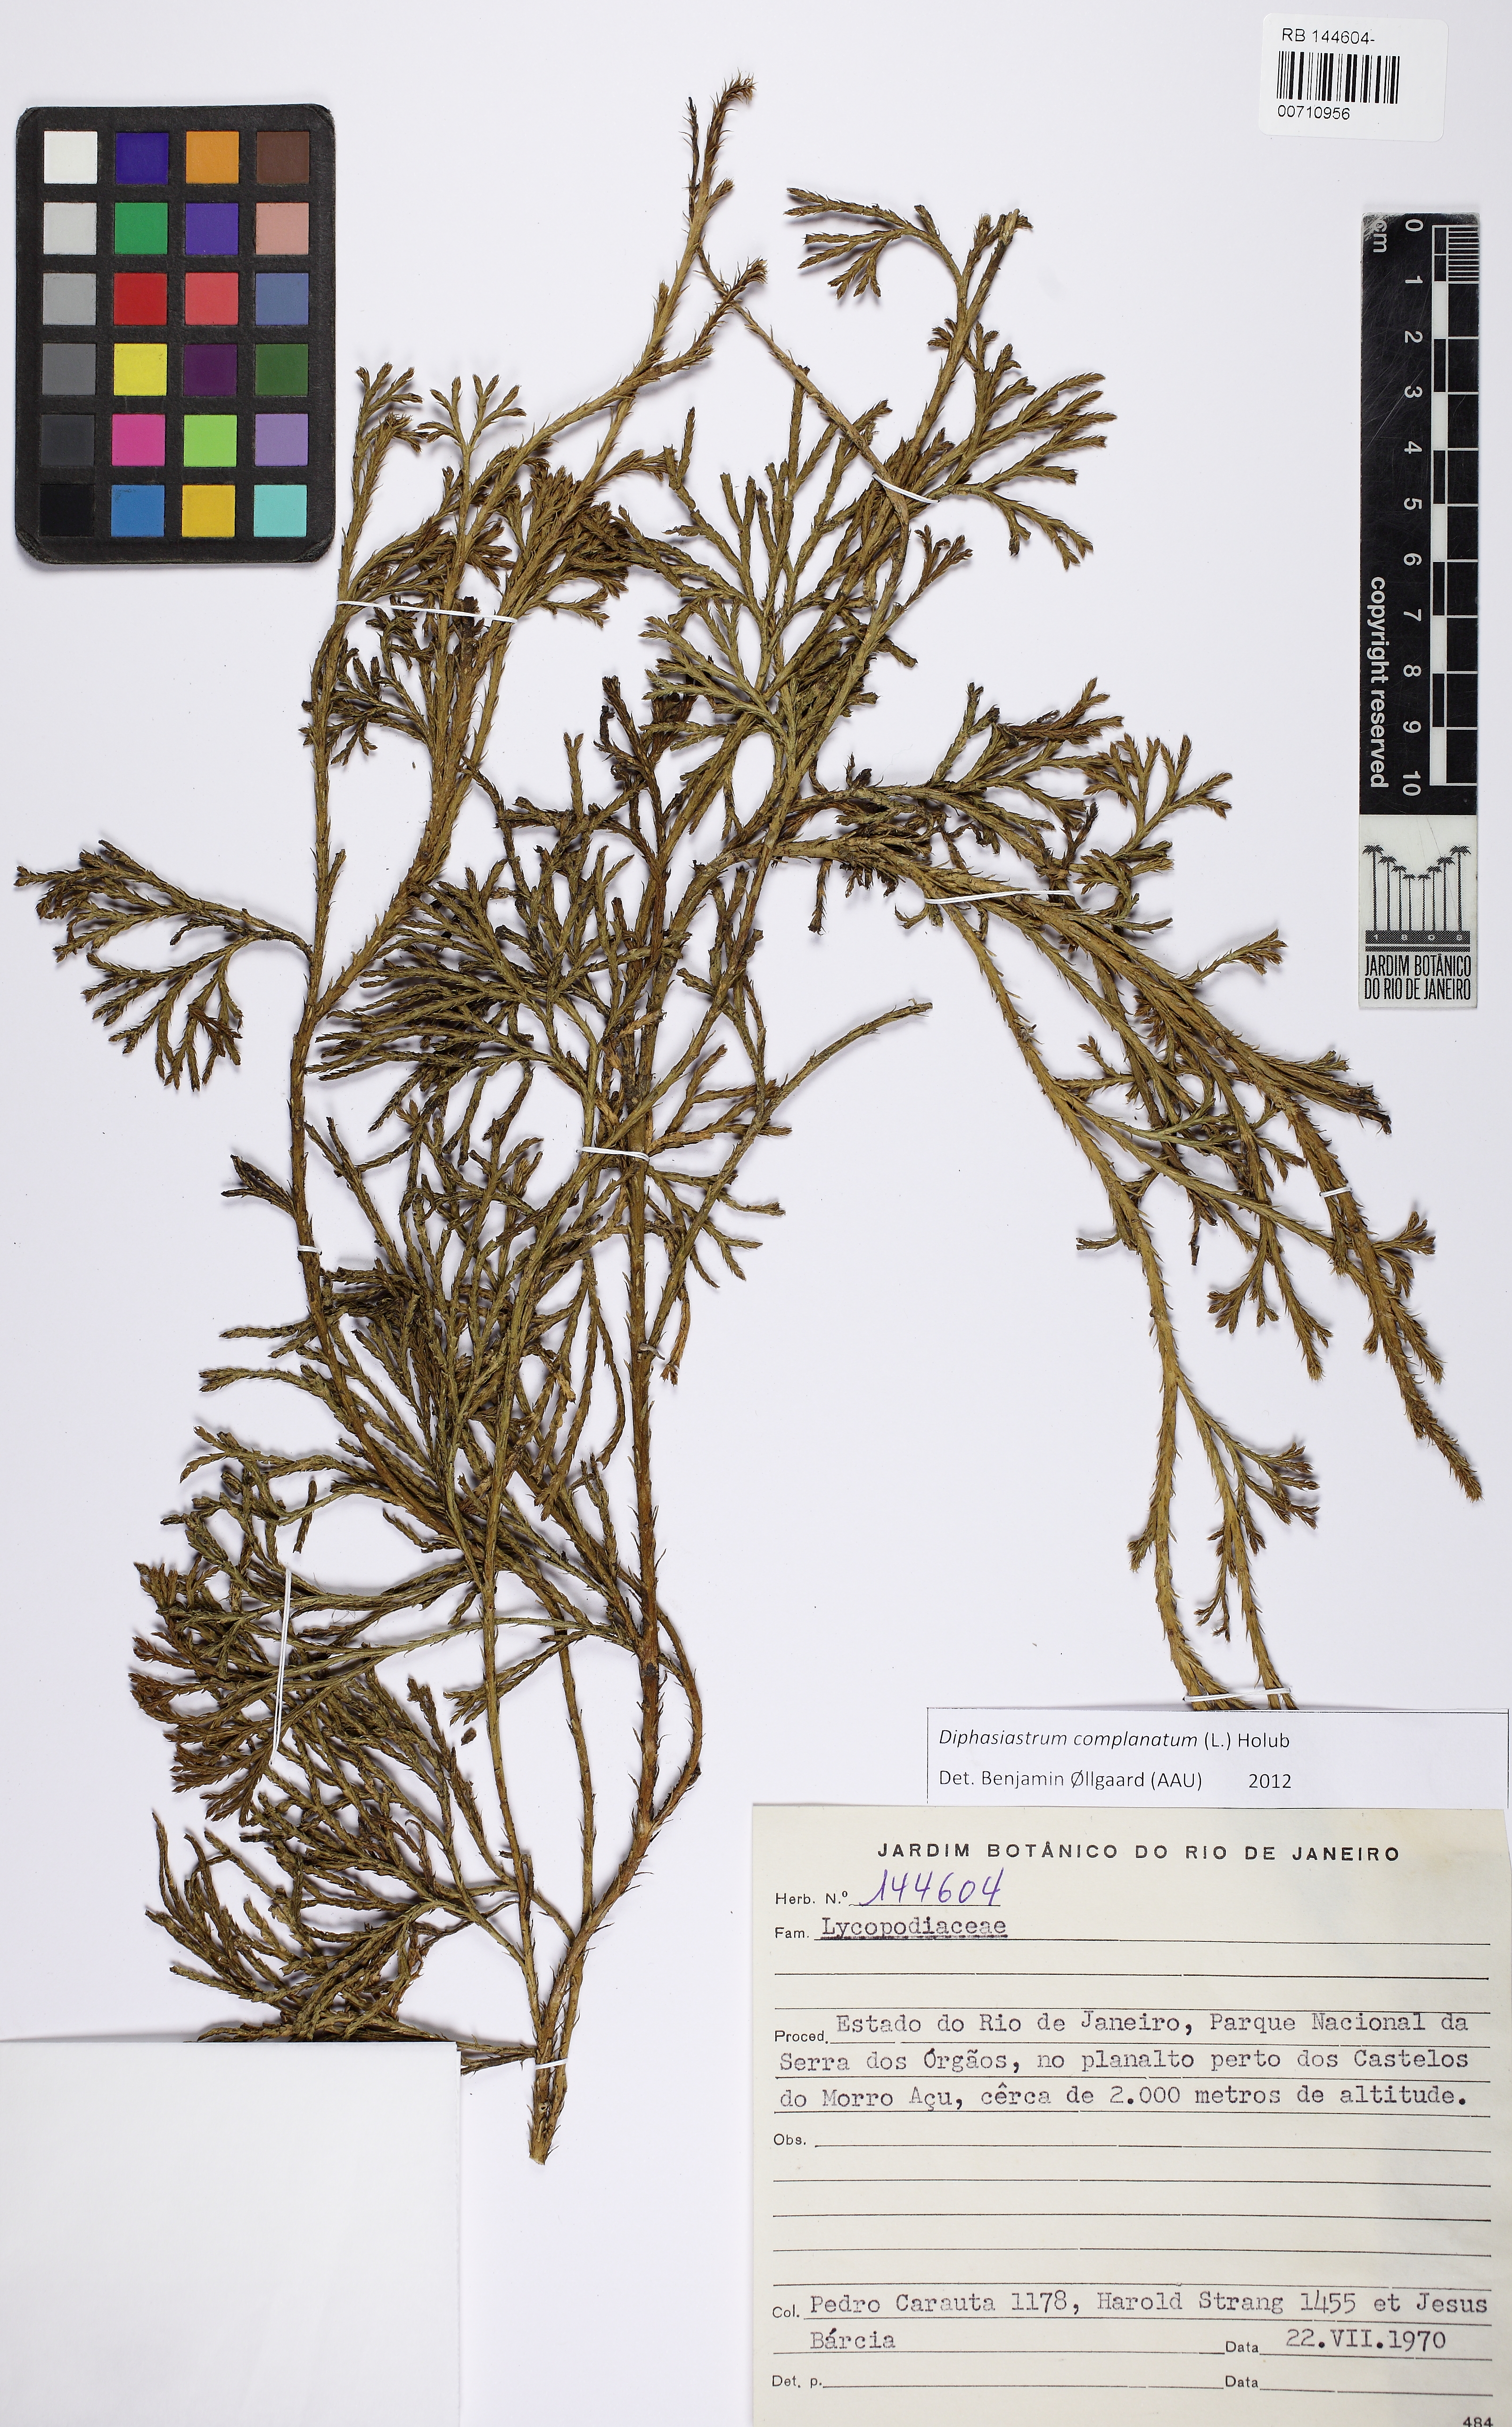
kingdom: Plantae
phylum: Tracheophyta
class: Lycopodiopsida
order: Lycopodiales
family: Lycopodiaceae
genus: Diphasiastrum
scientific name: Diphasiastrum complanatum
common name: Northern running-pine
